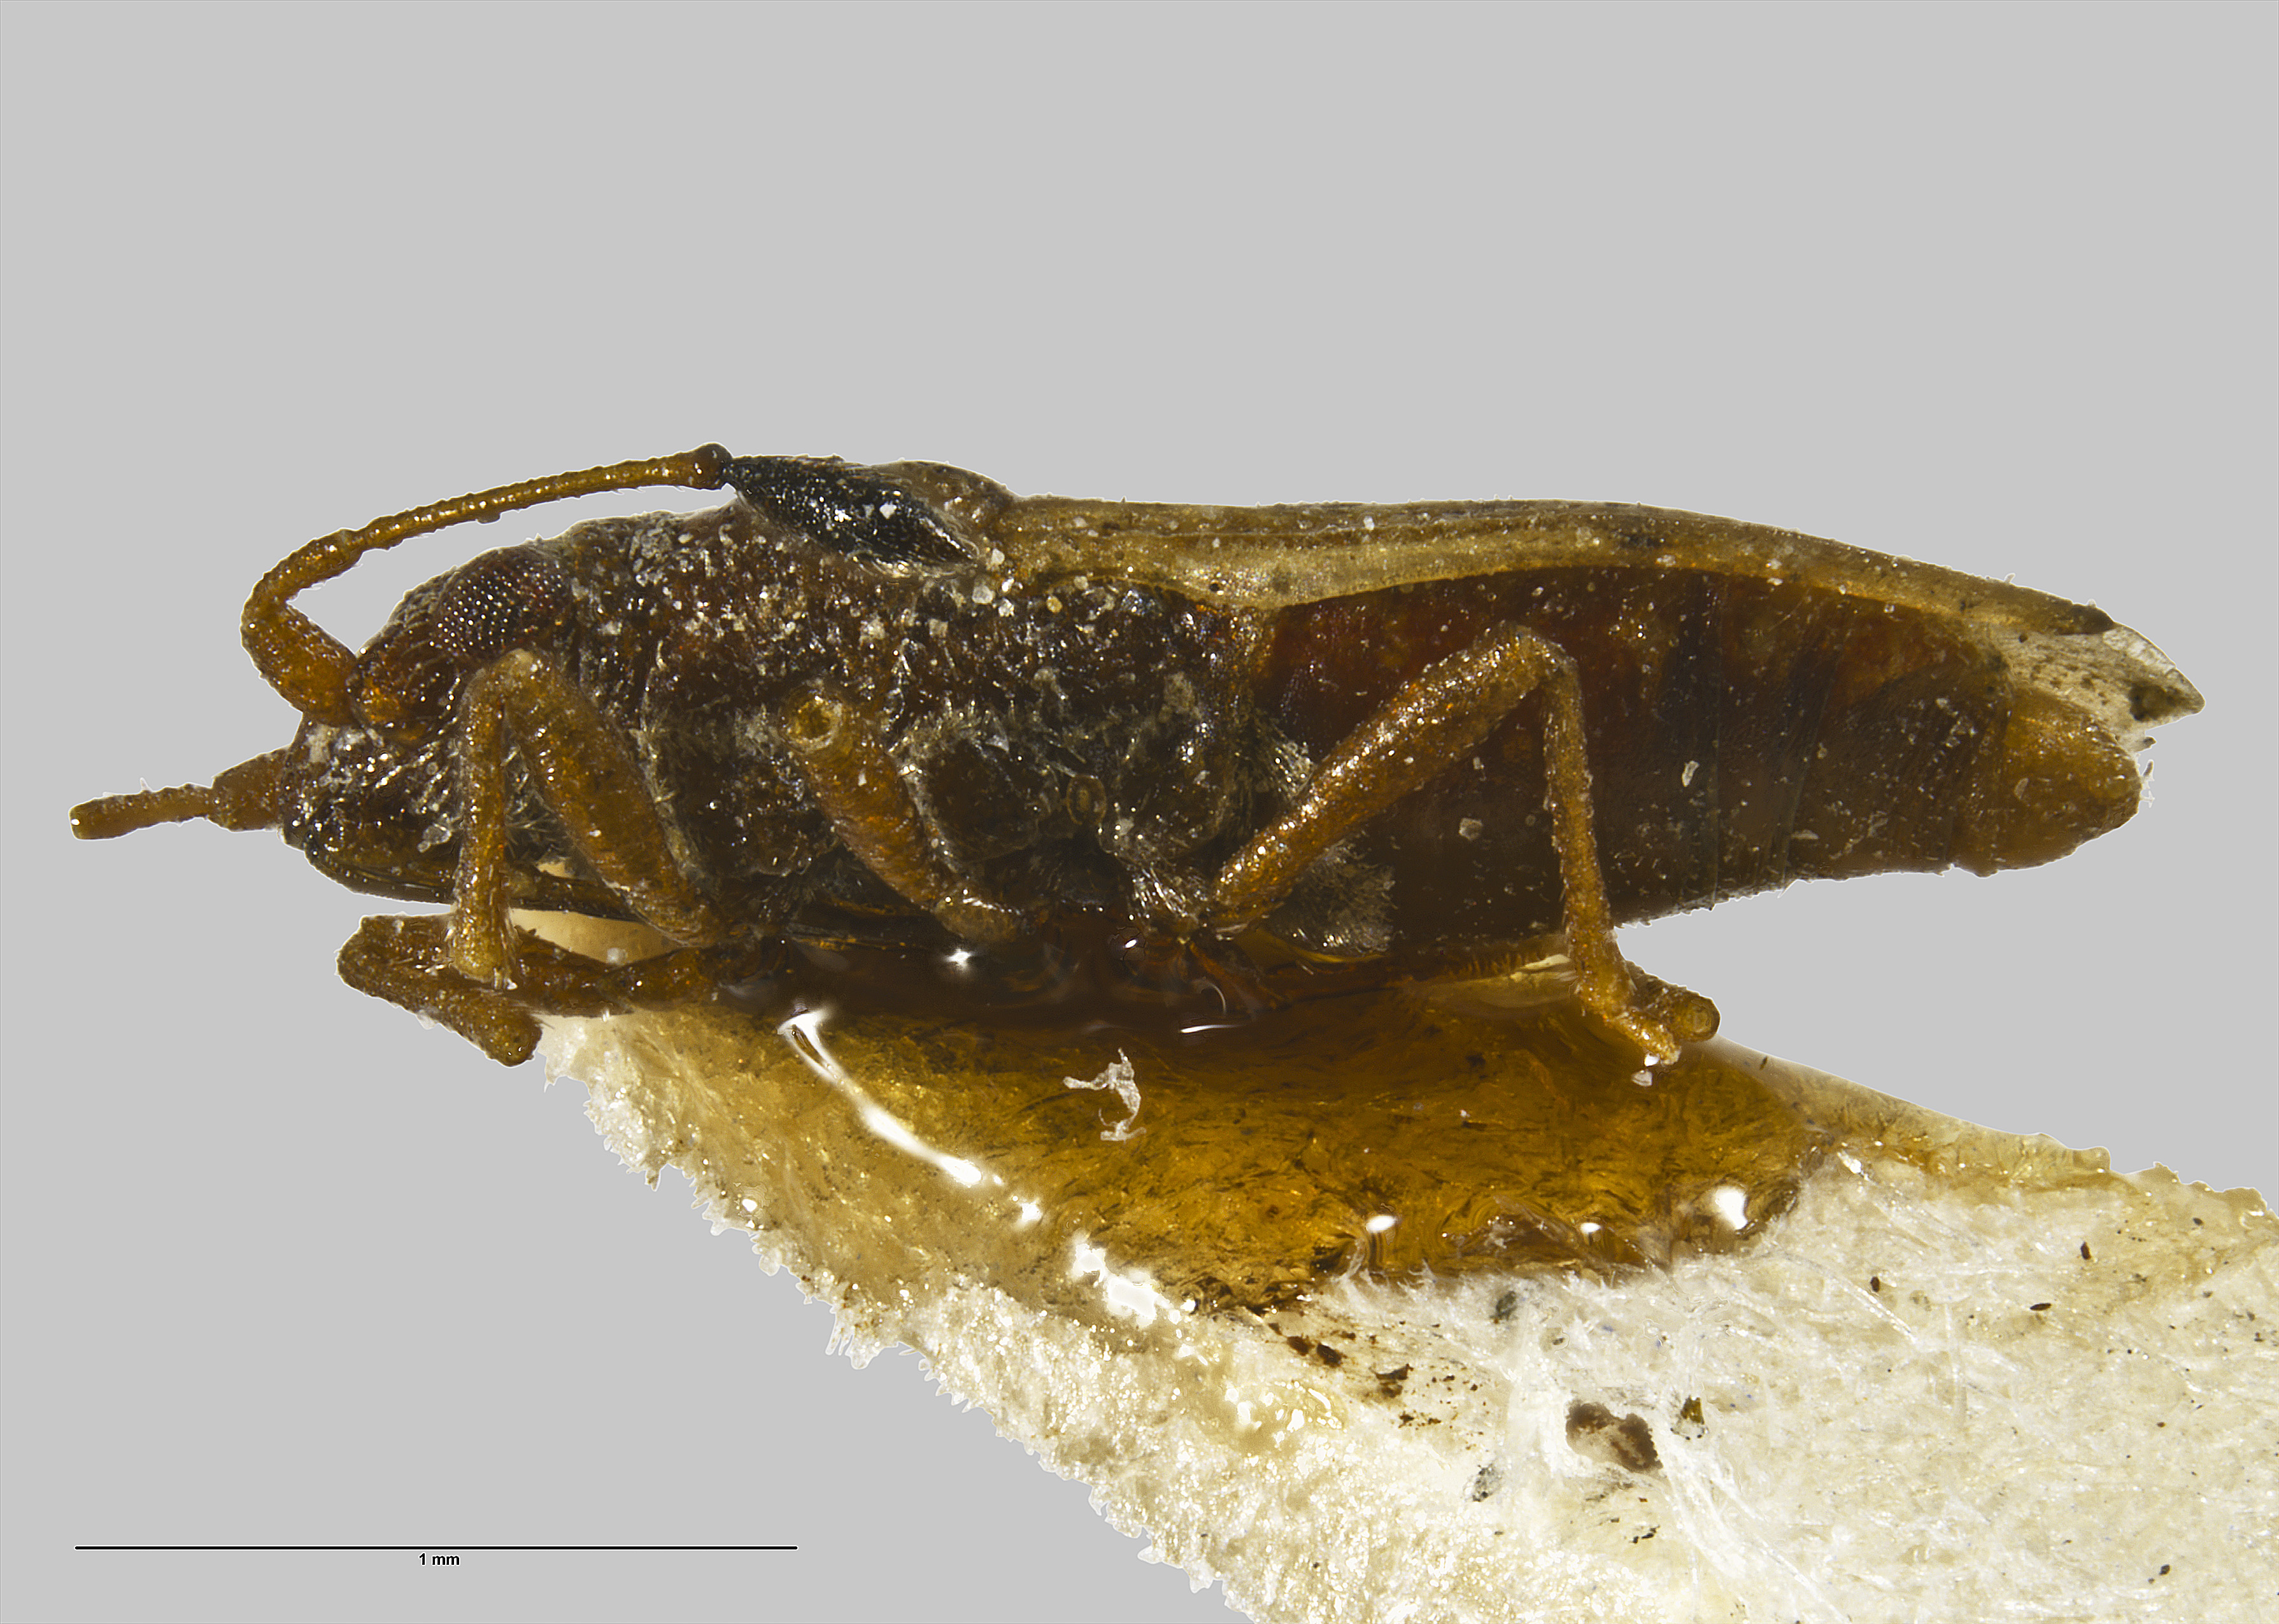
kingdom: Animalia
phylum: Arthropoda
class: Insecta
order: Hemiptera
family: Cymidae
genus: Cymus
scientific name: Cymus novaezelandiae
